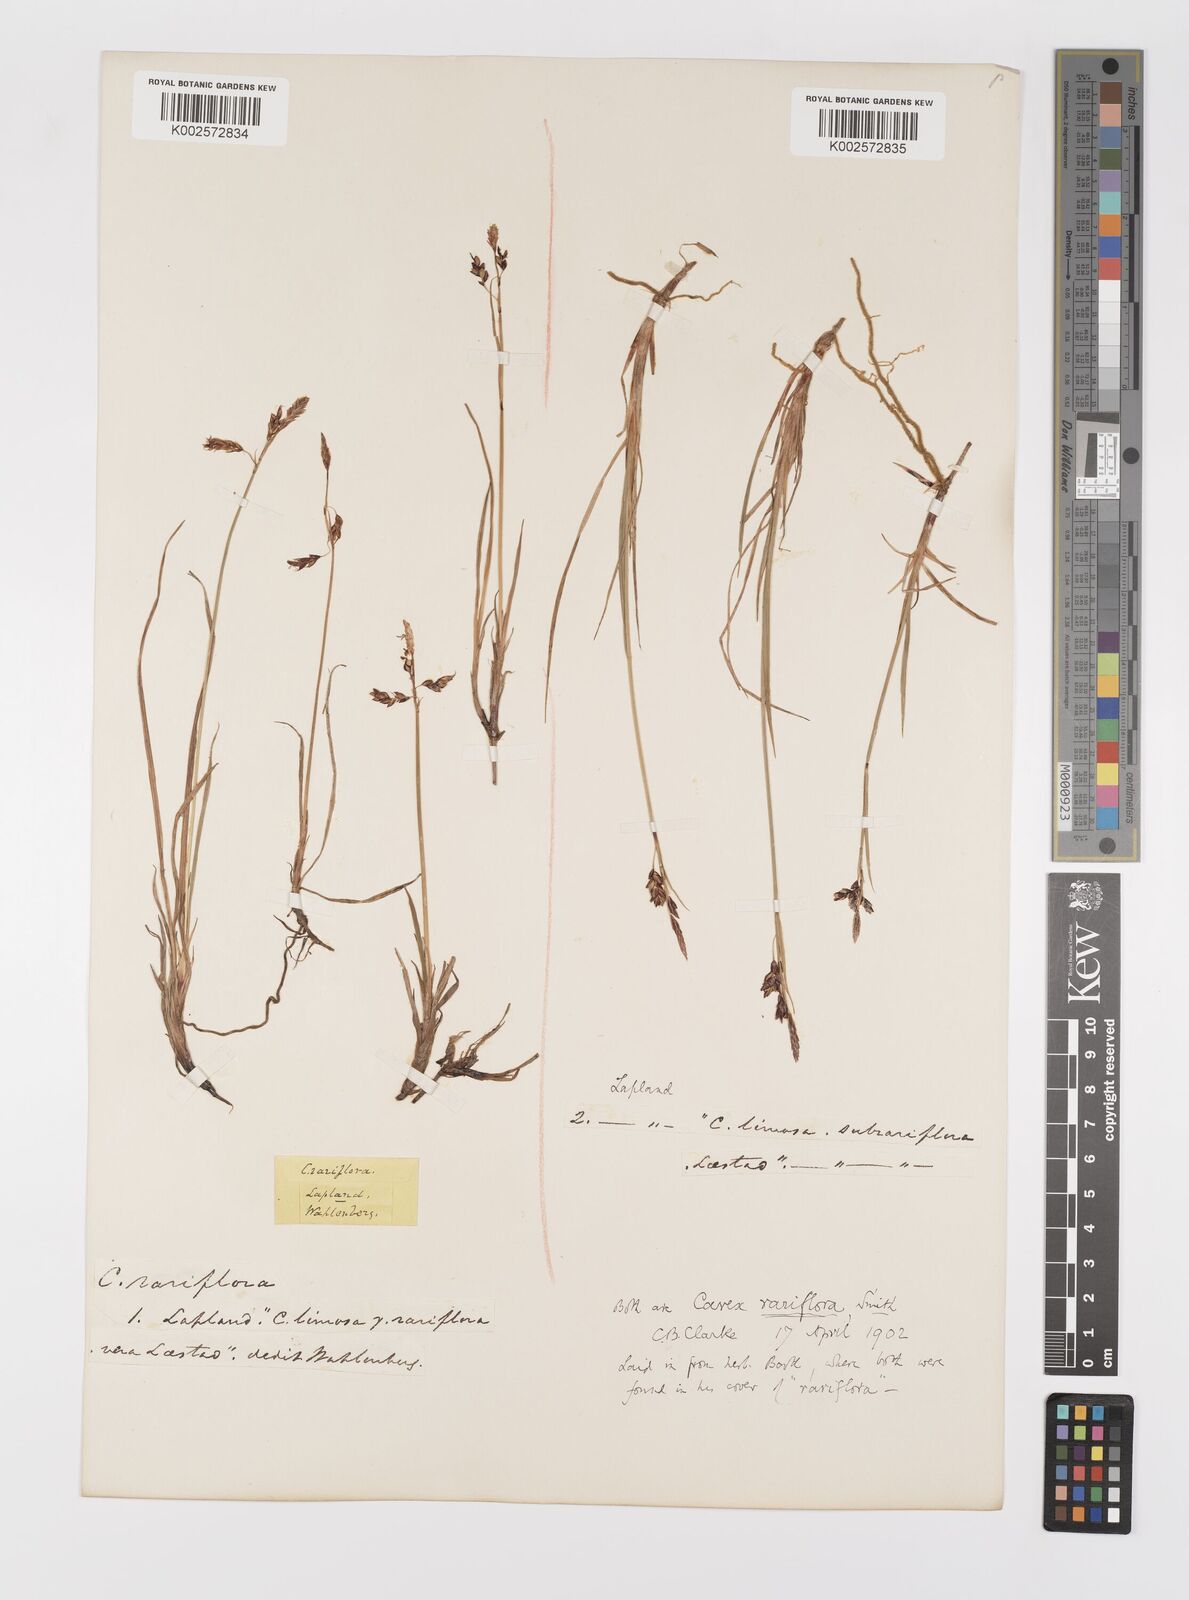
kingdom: Plantae
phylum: Tracheophyta
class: Liliopsida
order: Poales
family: Cyperaceae
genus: Carex
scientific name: Carex rariflora
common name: Loose-flowered alpine sedge
